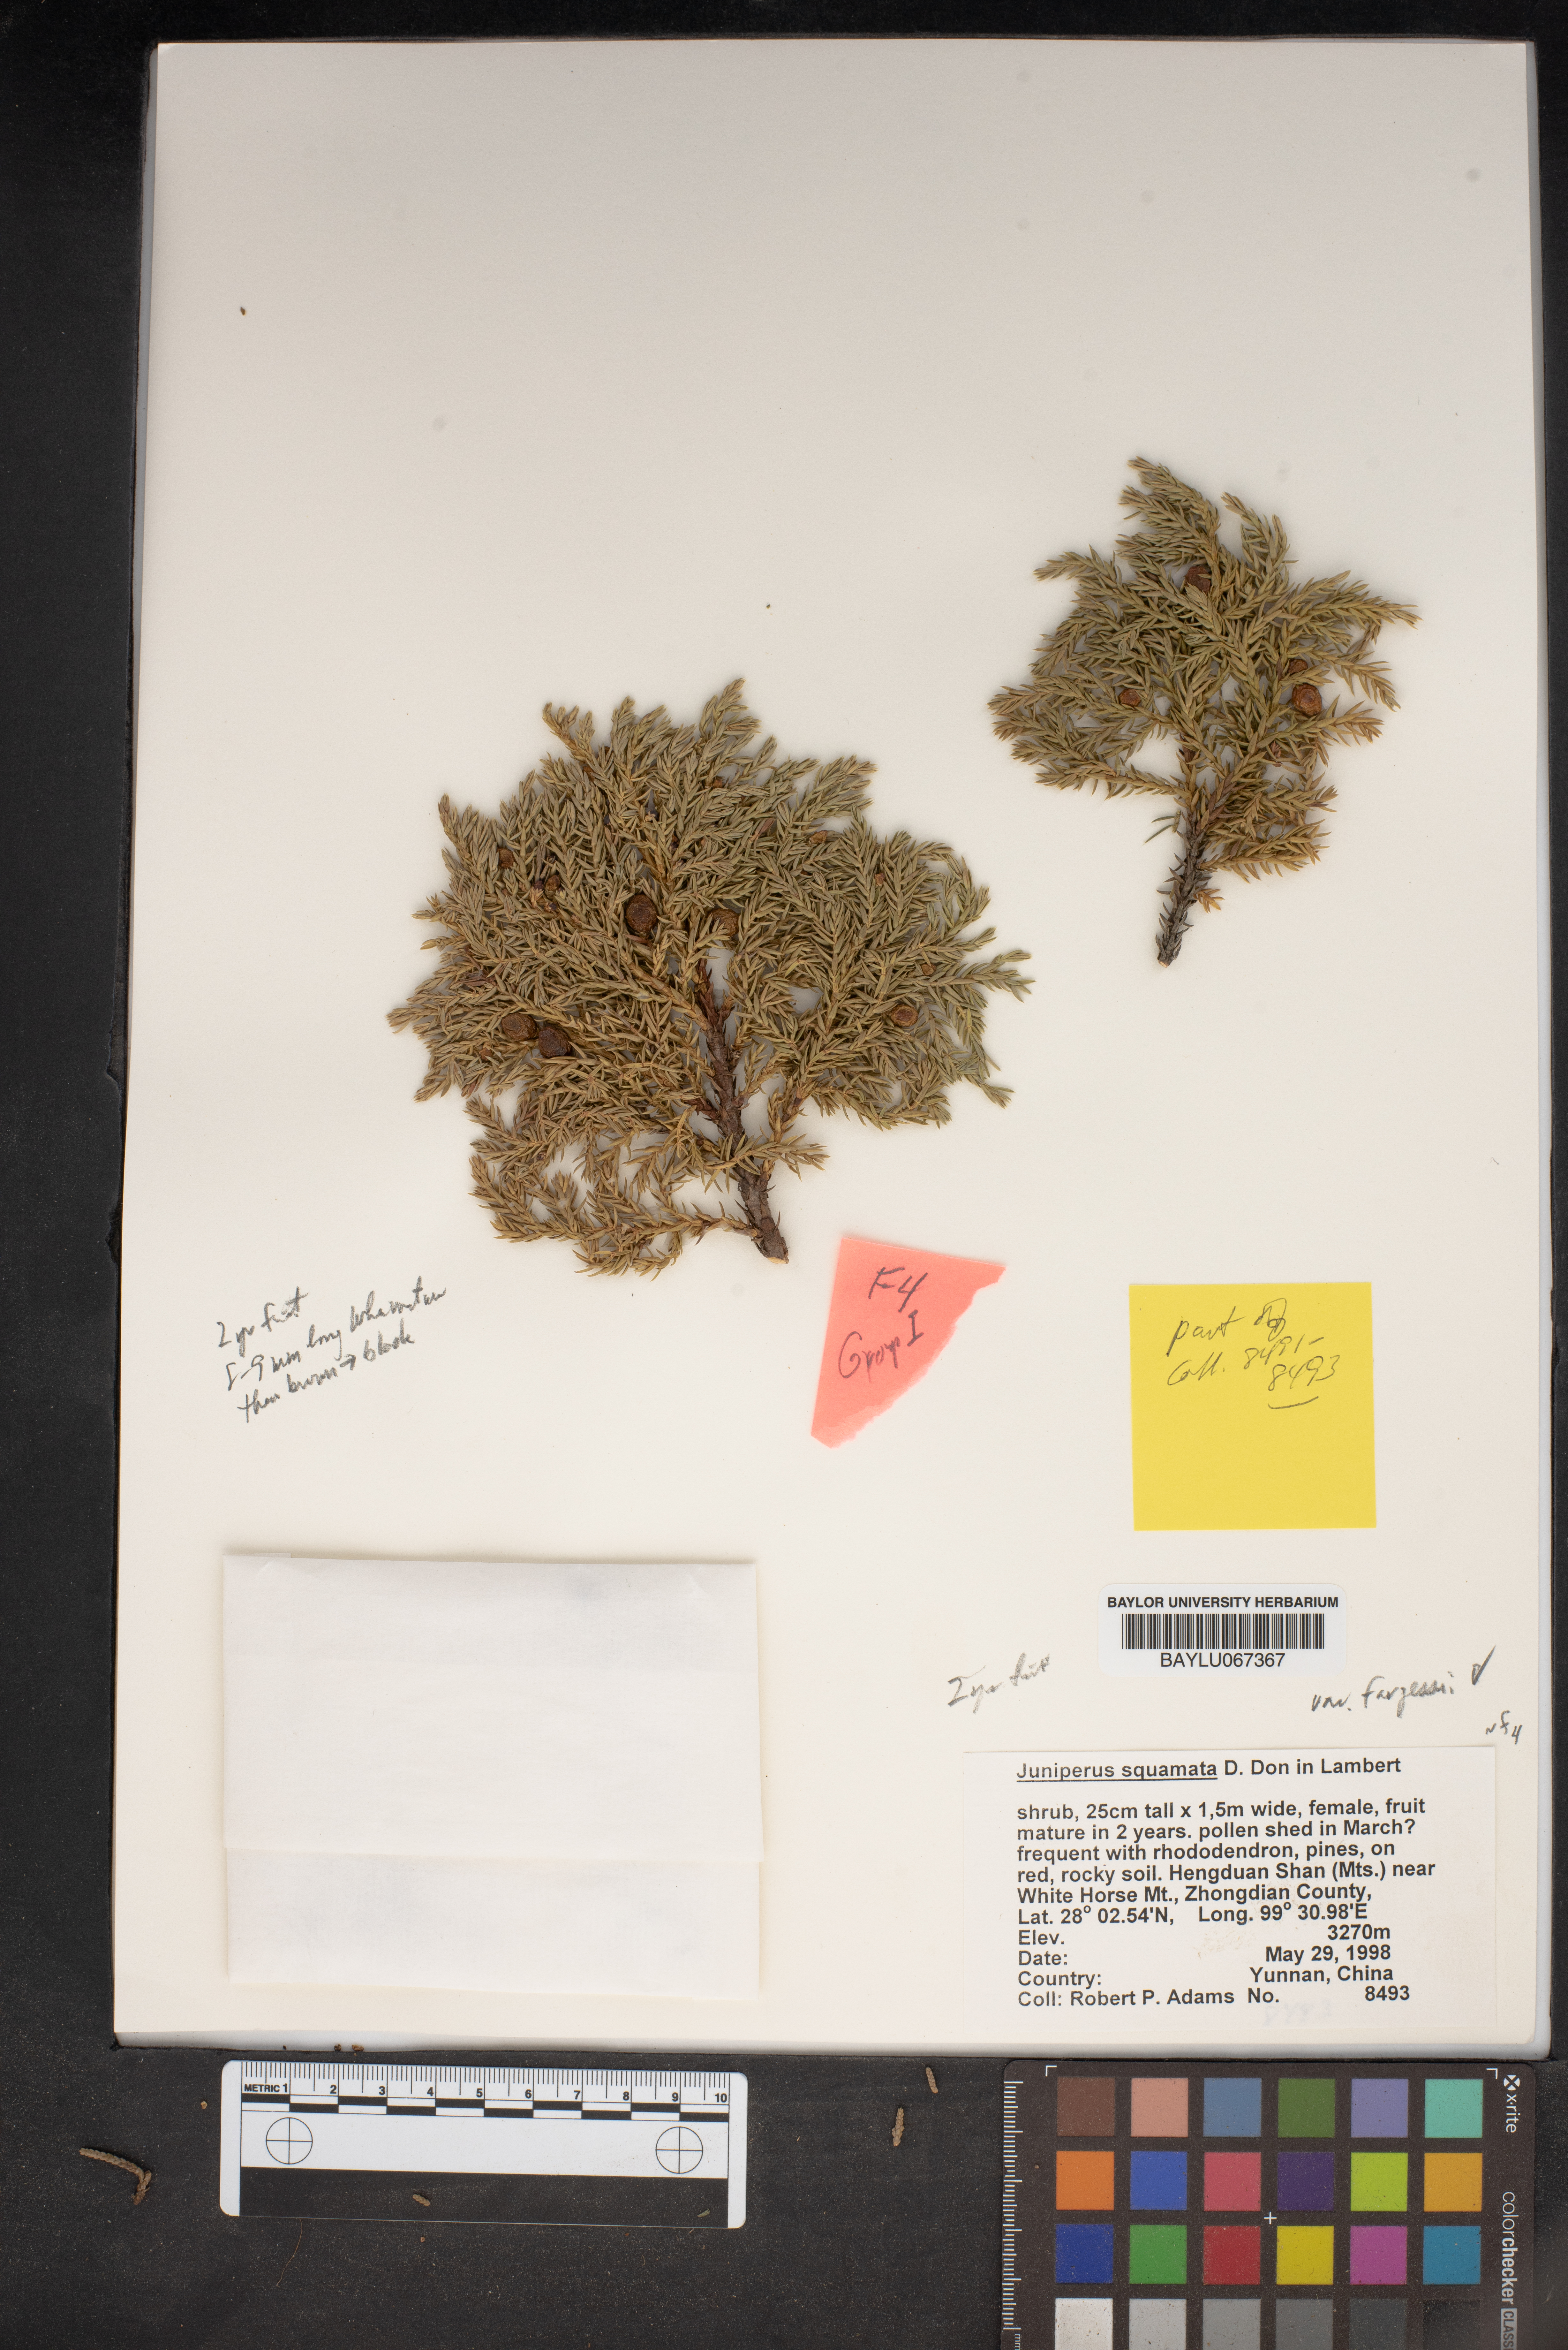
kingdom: Plantae
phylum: Tracheophyta
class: Pinopsida
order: Pinales
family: Cupressaceae
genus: Juniperus
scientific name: Juniperus squamata
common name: Flaky juniper
